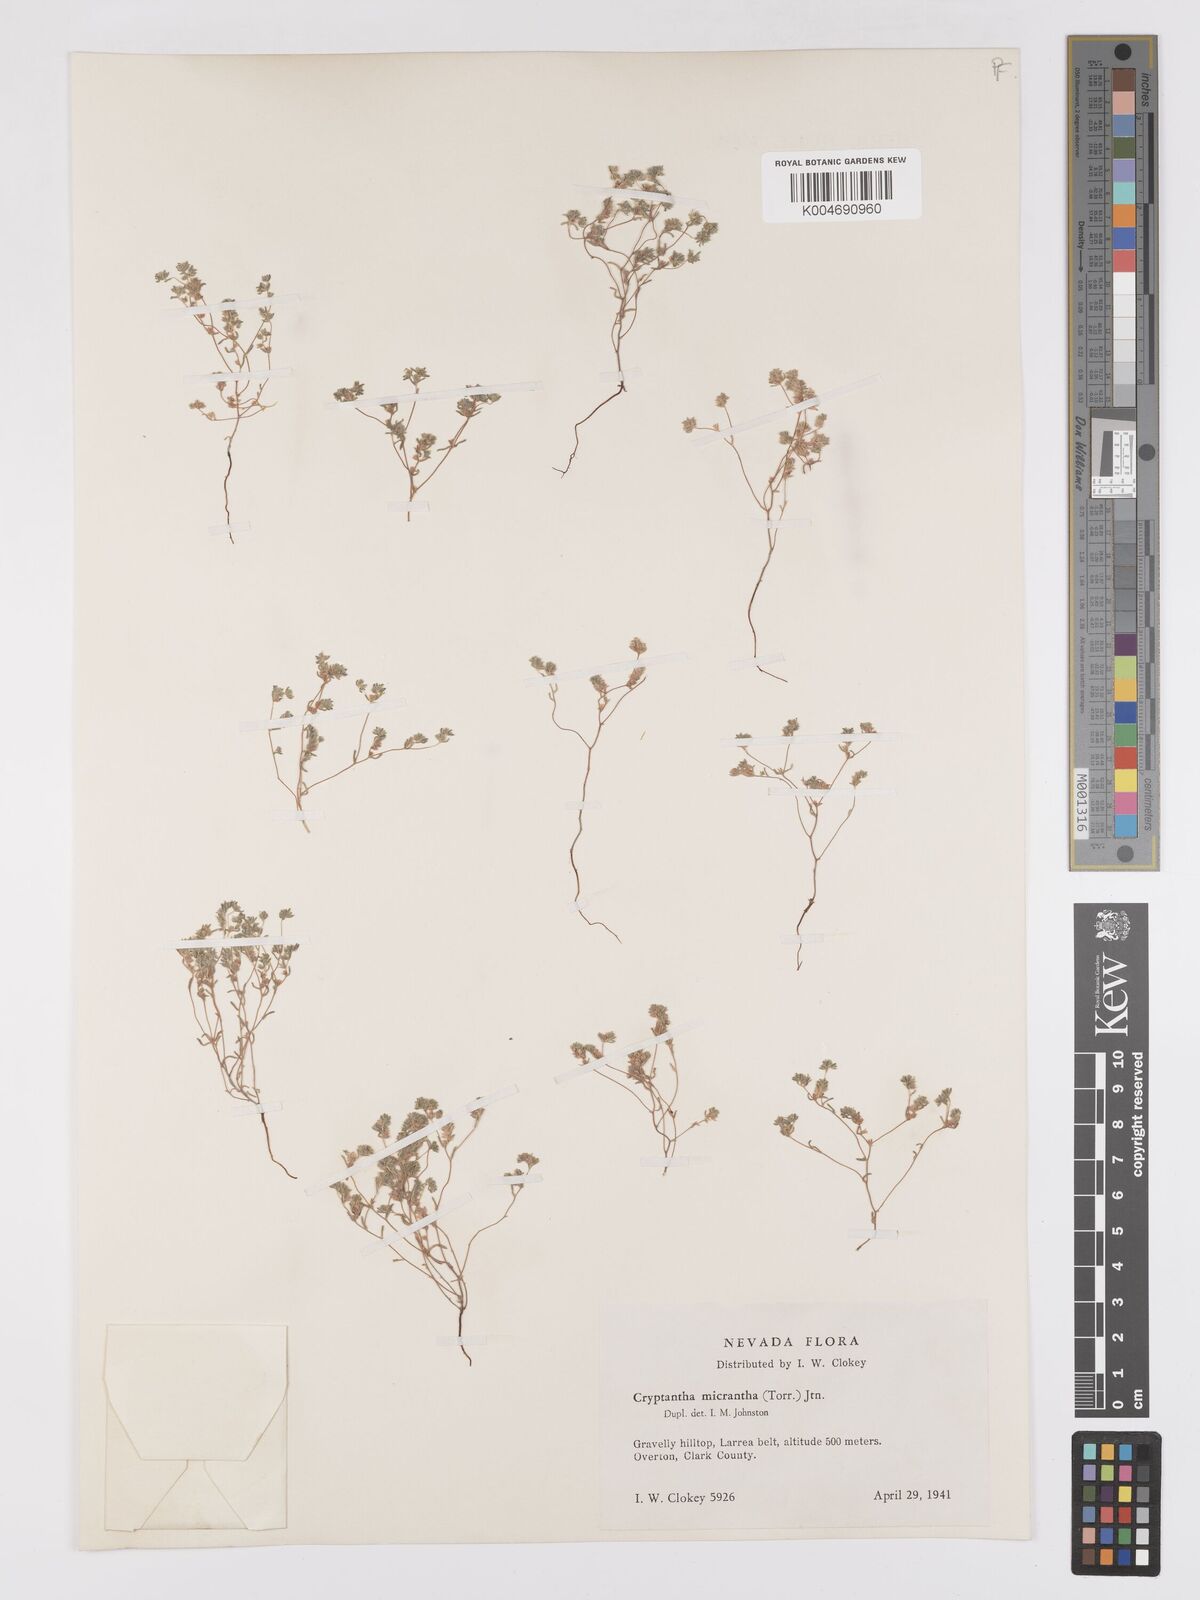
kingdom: Plantae
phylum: Tracheophyta
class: Magnoliopsida
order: Boraginales
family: Boraginaceae
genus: Eremocarya
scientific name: Eremocarya micrantha
